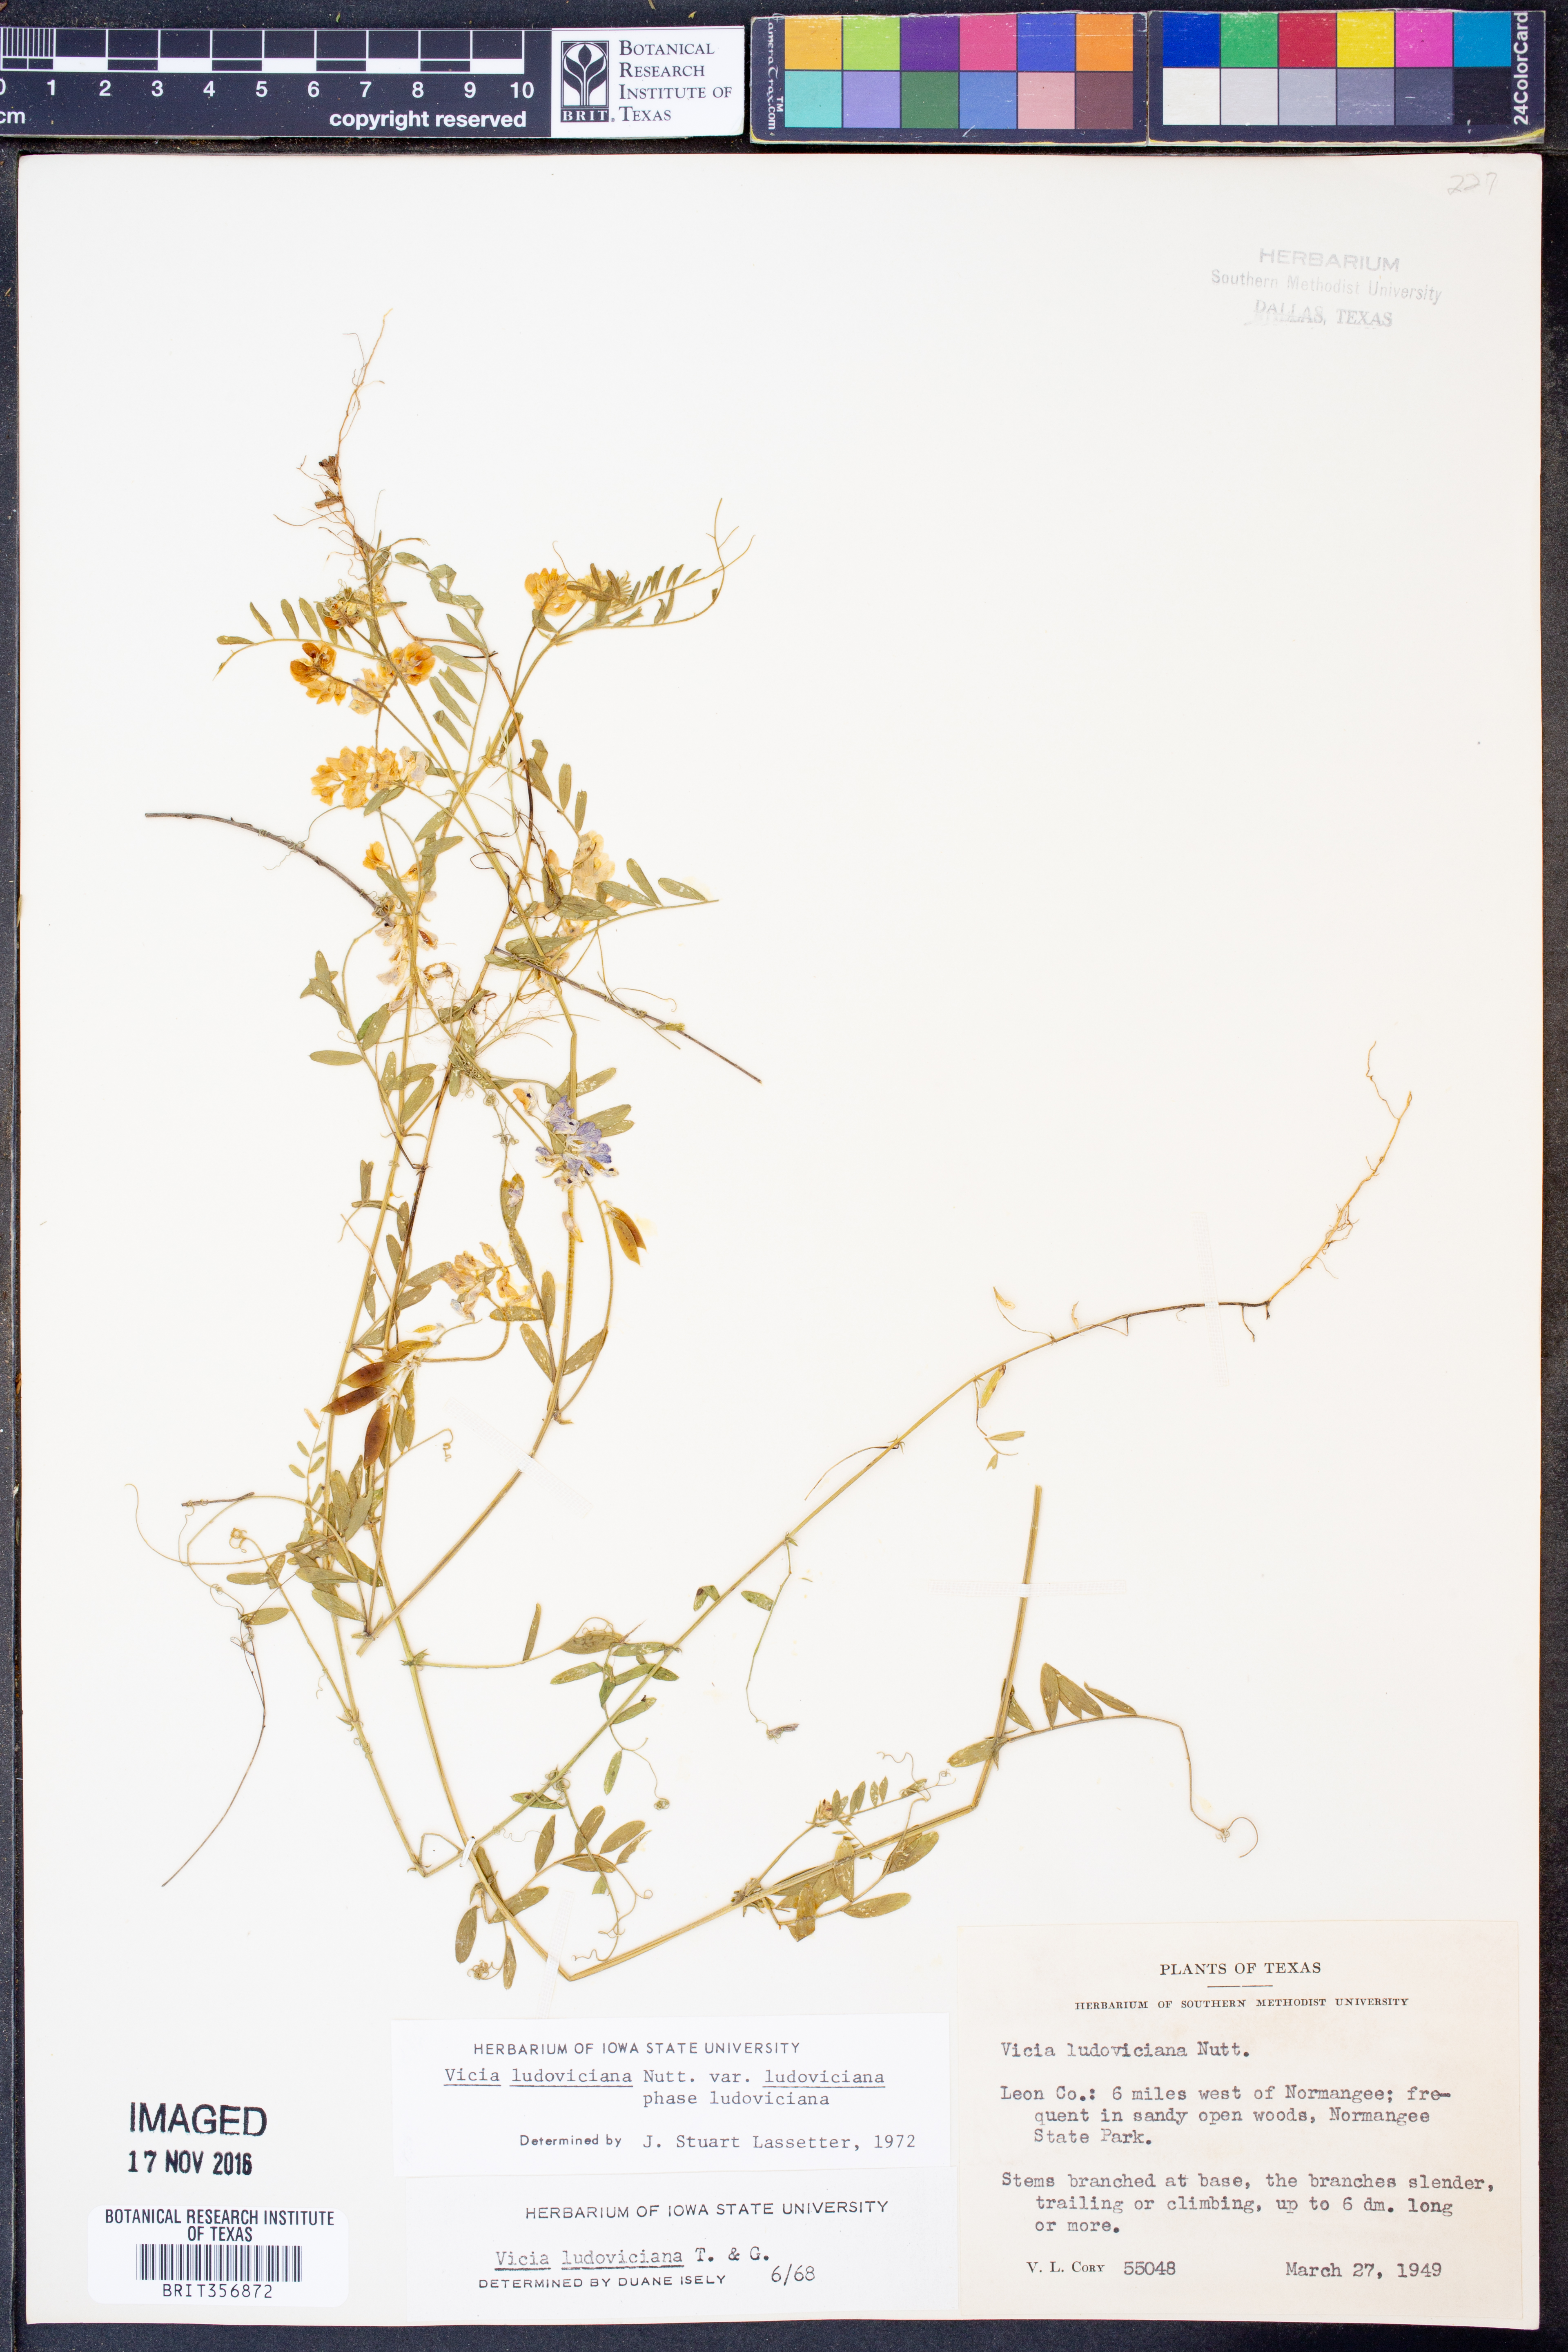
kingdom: Plantae
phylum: Tracheophyta
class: Magnoliopsida
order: Fabales
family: Fabaceae
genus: Vicia
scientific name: Vicia ludoviciana
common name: Louisiana vetch
